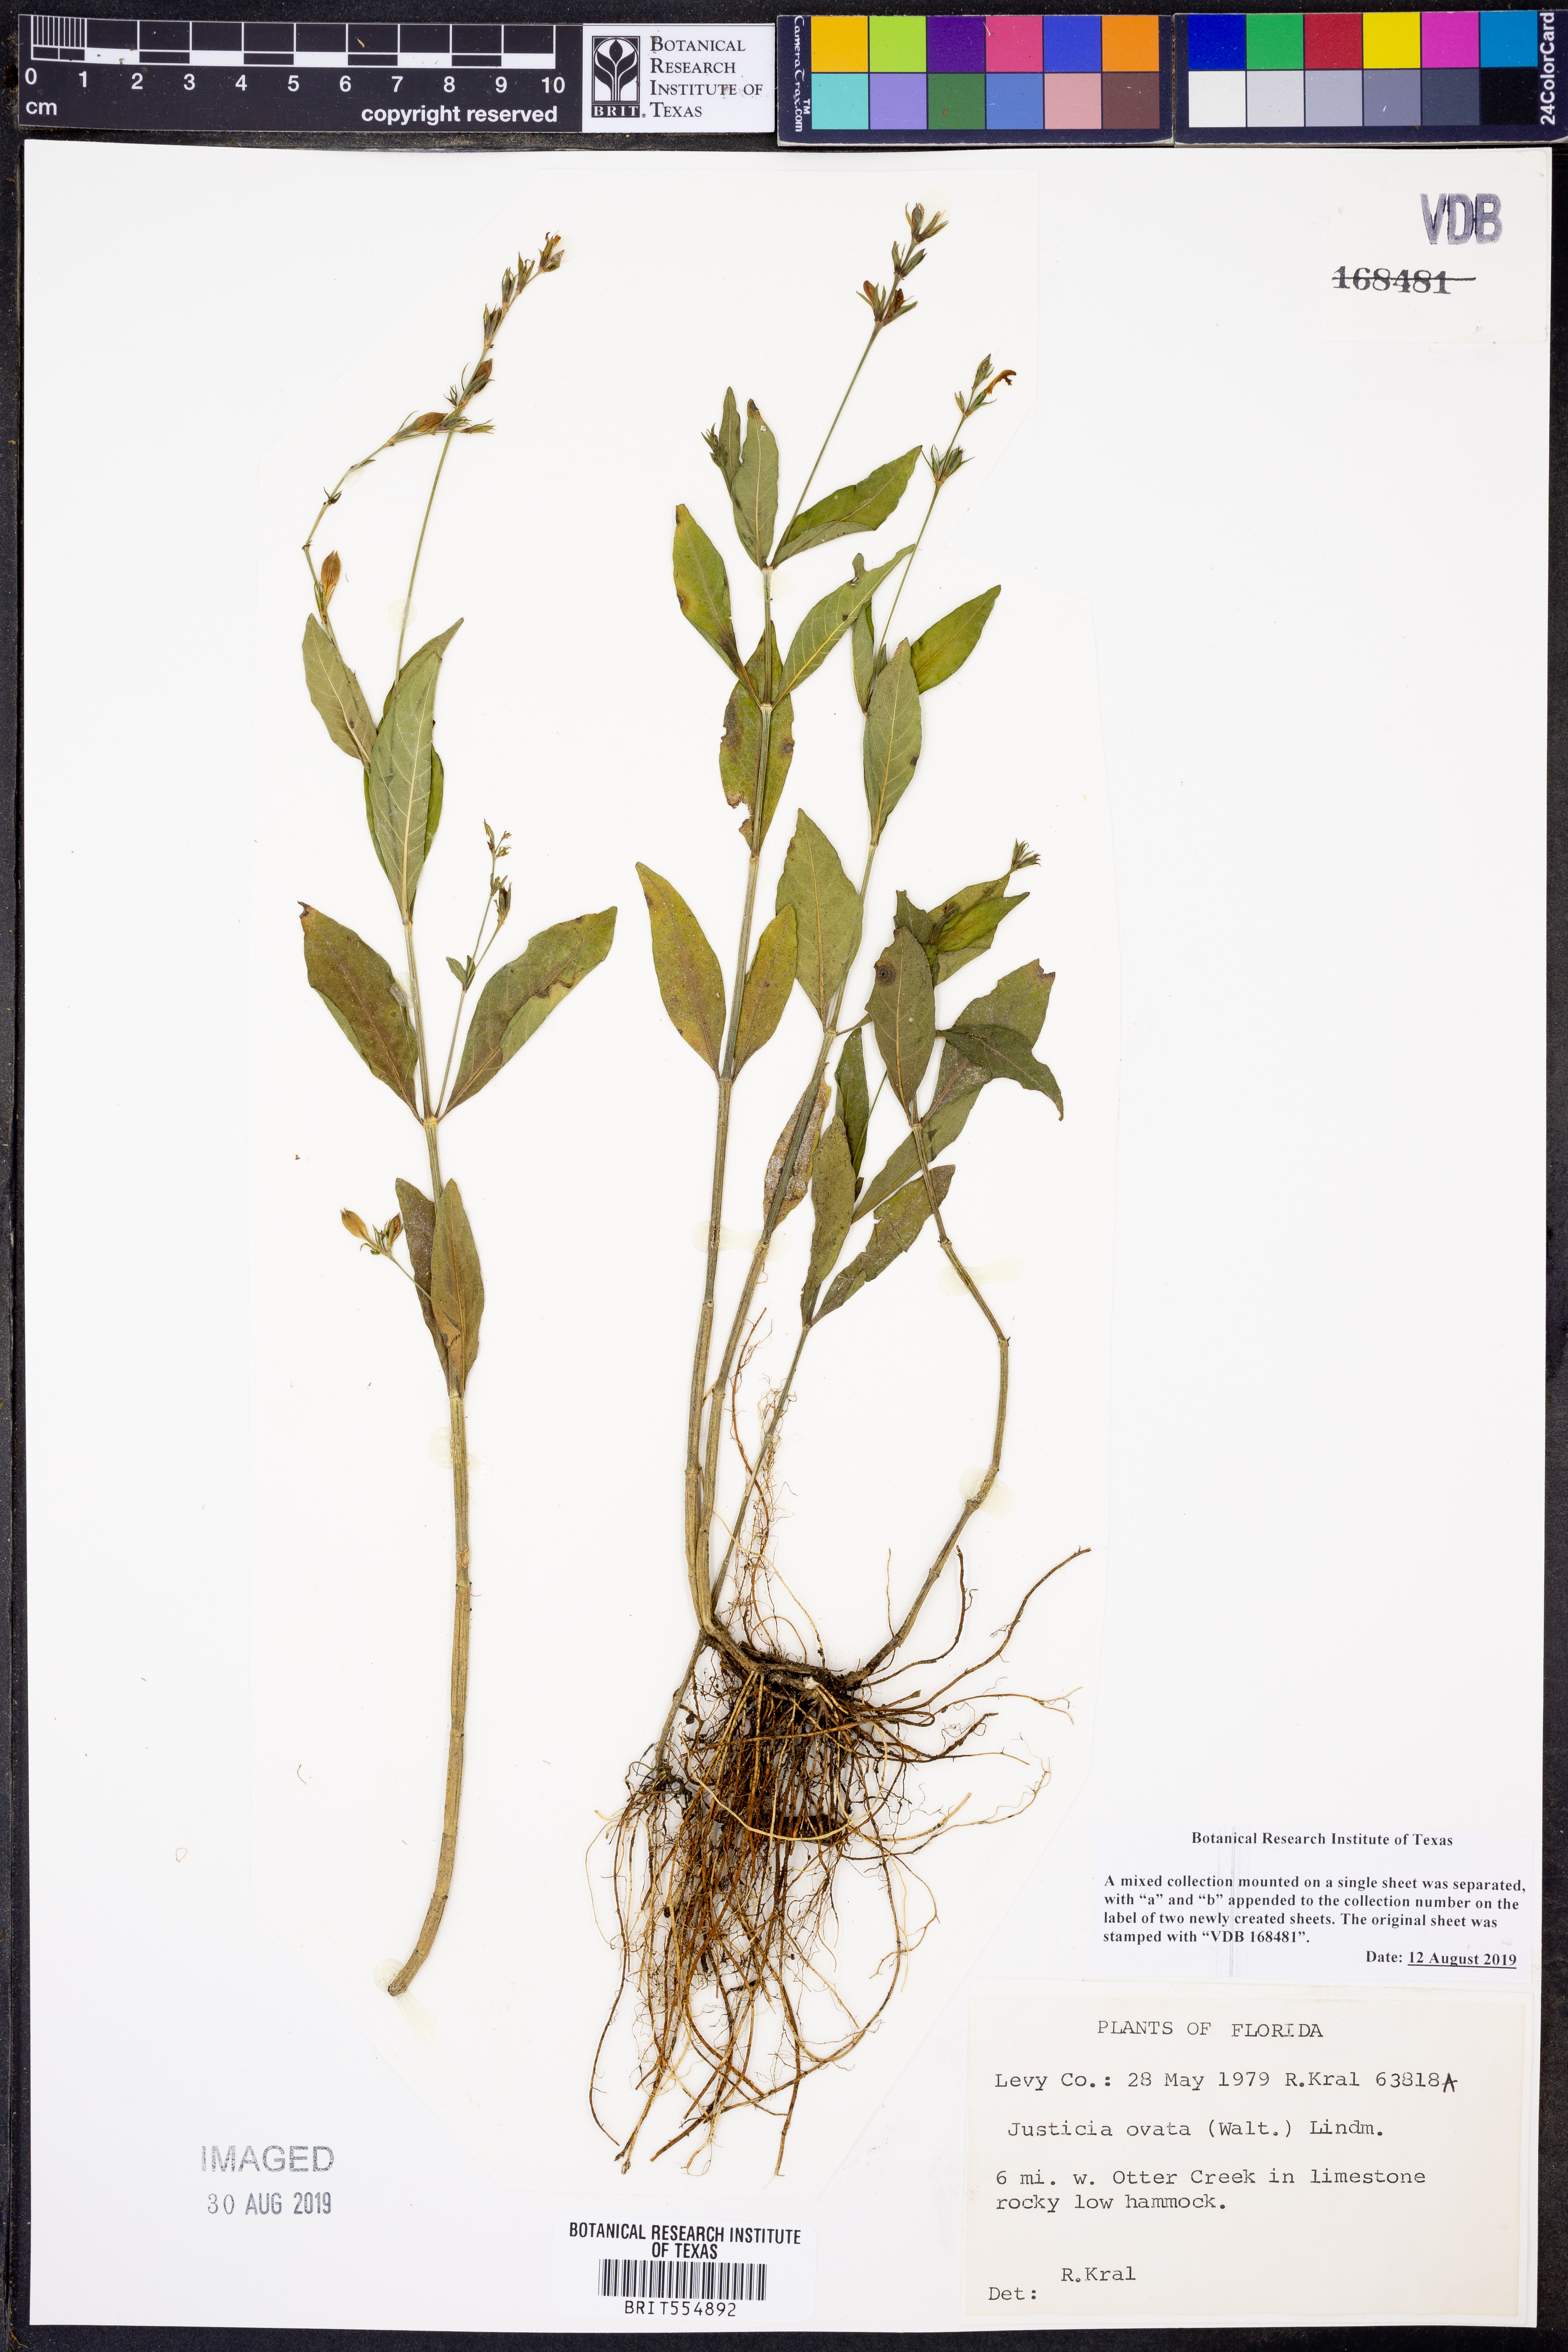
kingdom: Plantae
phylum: Tracheophyta
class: Magnoliopsida
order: Lamiales
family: Acanthaceae
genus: Dianthera
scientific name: Dianthera ovata
